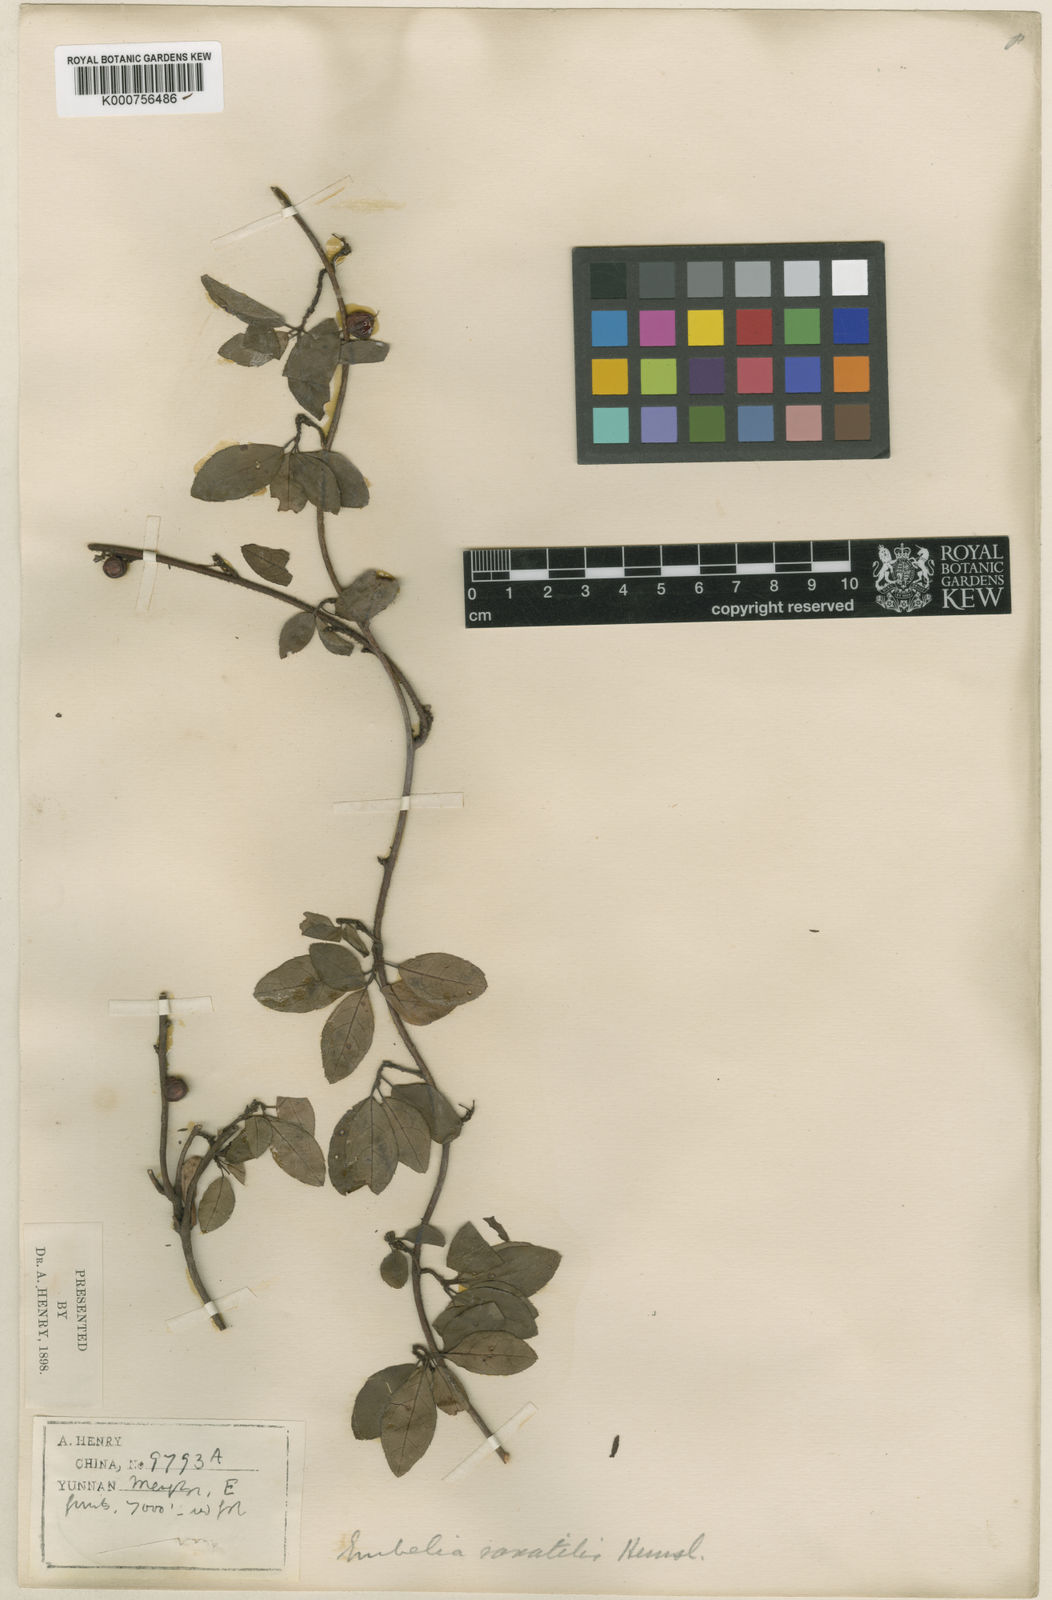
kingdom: Plantae
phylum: Tracheophyta
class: Magnoliopsida
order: Ericales
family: Primulaceae
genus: Embelia
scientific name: Embelia procumbens
